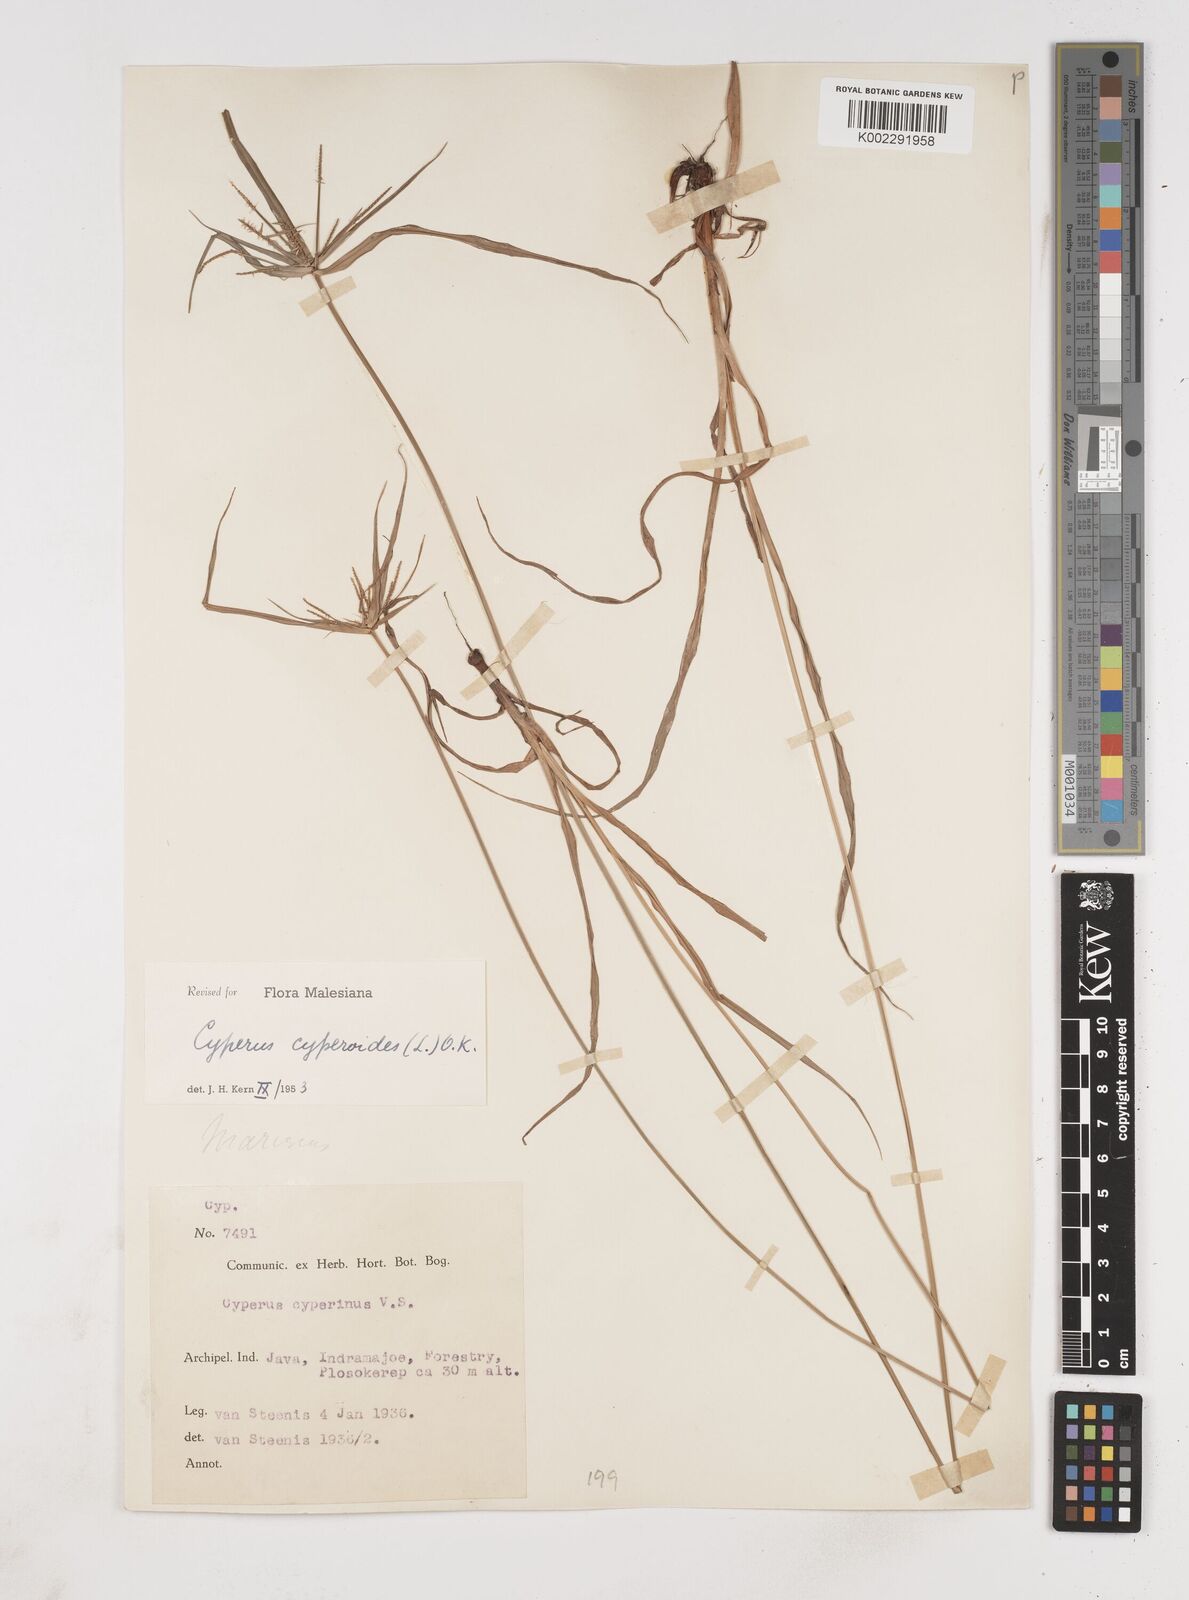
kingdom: Plantae
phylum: Tracheophyta
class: Liliopsida
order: Poales
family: Cyperaceae
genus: Cyperus
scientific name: Cyperus cyperoides
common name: Pacific island flat sedge
